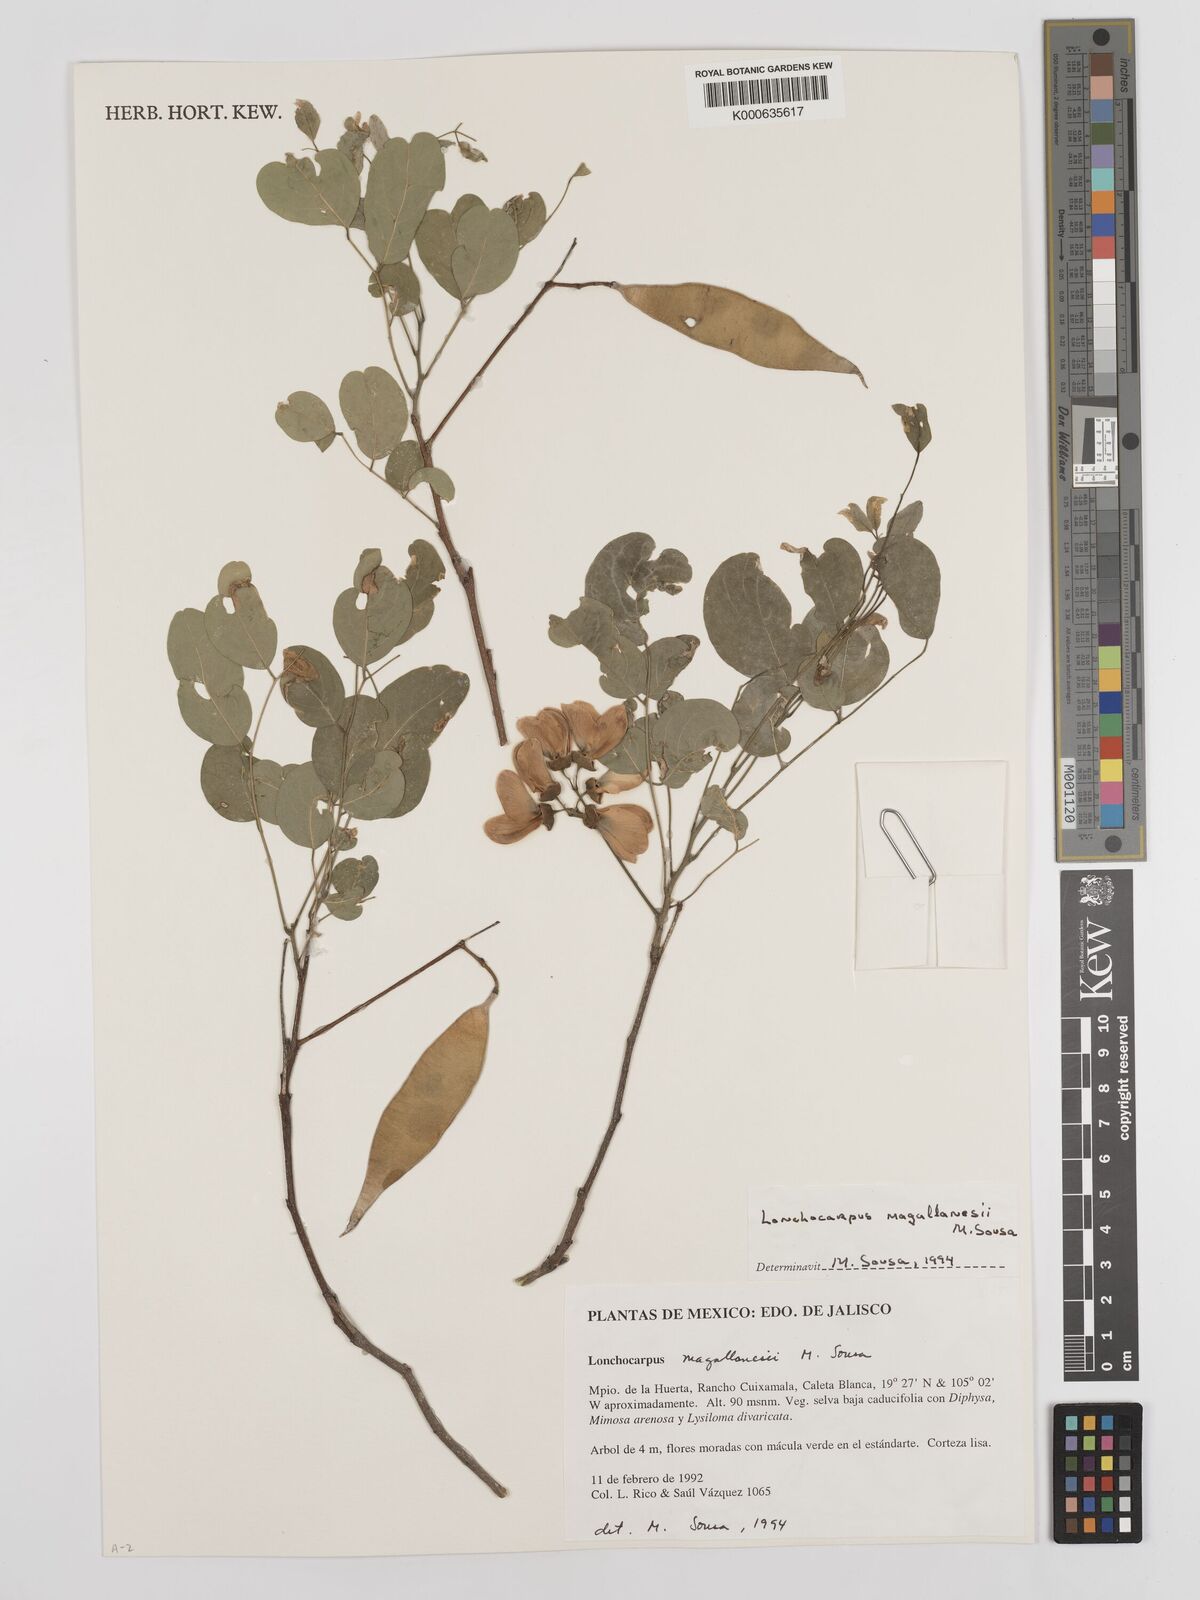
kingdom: Plantae
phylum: Tracheophyta
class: Magnoliopsida
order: Fabales
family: Fabaceae
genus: Lonchocarpus
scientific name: Lonchocarpus
